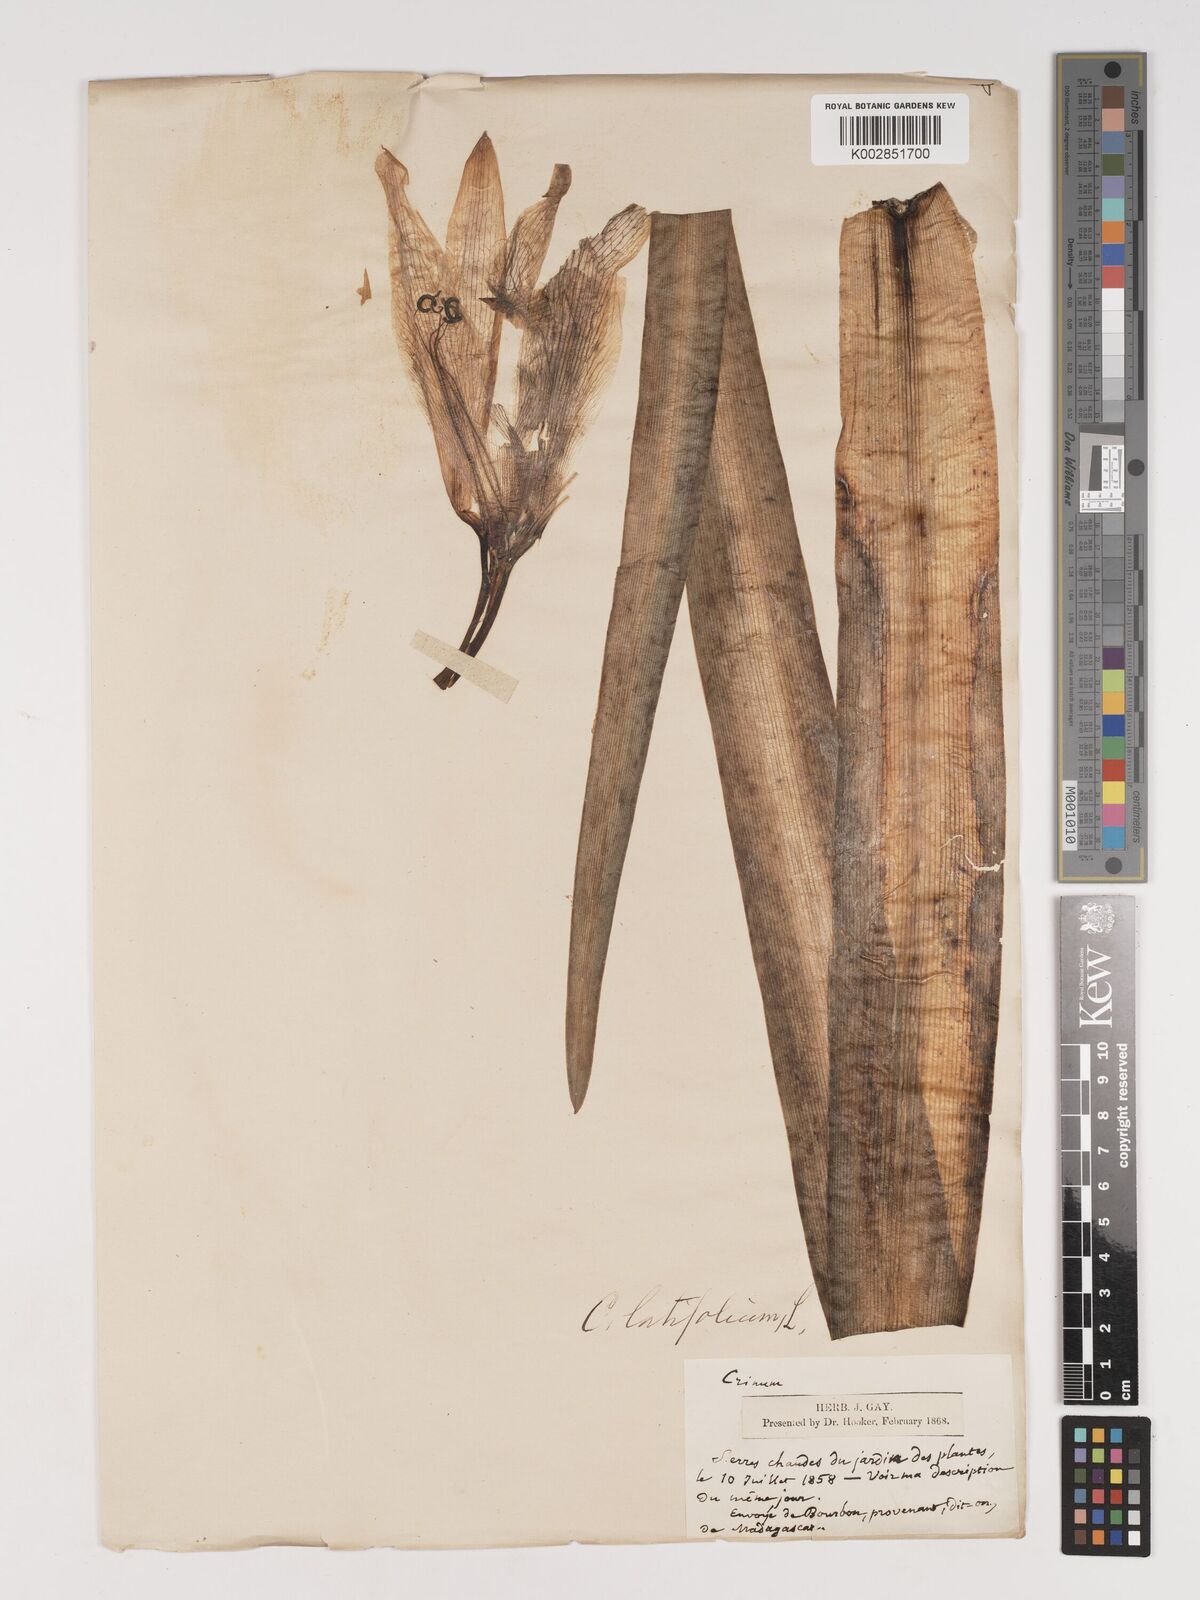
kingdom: Plantae
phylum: Tracheophyta
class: Liliopsida
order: Asparagales
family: Amaryllidaceae
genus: Crinum
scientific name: Crinum latifolium
